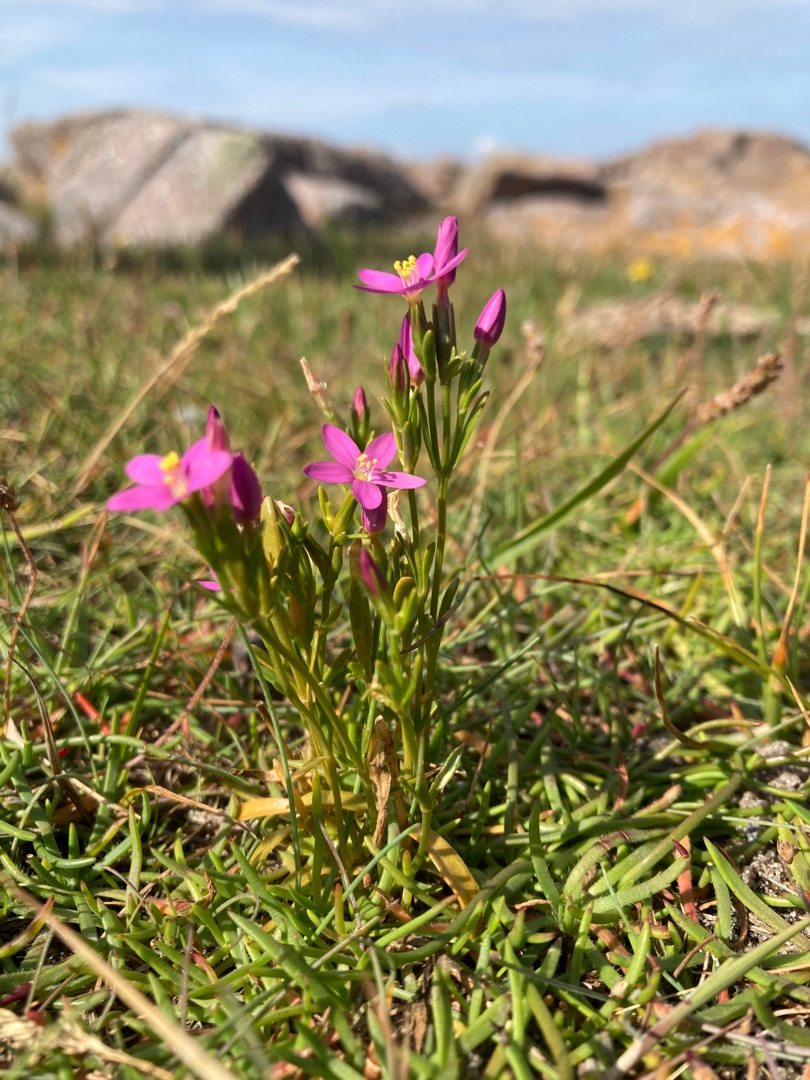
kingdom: Plantae
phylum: Tracheophyta
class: Magnoliopsida
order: Gentianales
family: Gentianaceae
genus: Centaurium
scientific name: Centaurium littorale
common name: Strand-tusindgylden
